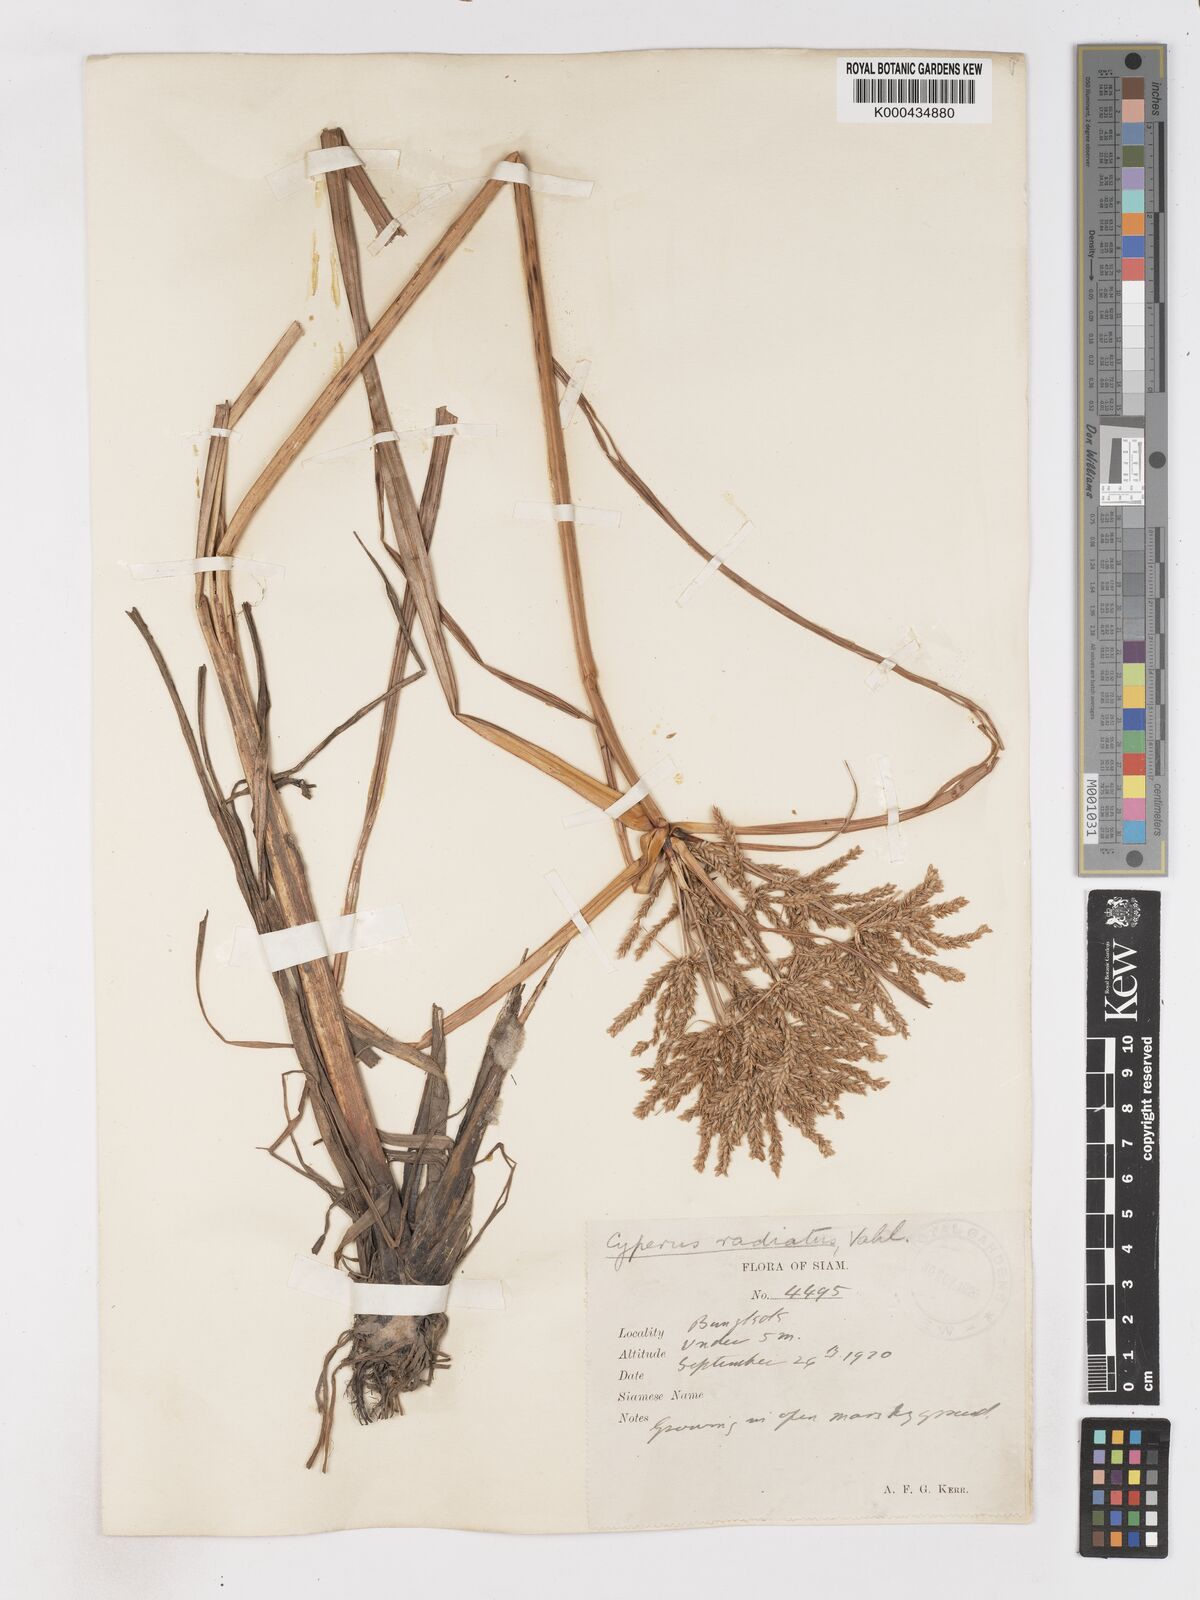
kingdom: Plantae
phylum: Tracheophyta
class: Liliopsida
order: Poales
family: Cyperaceae
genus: Cyperus
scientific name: Cyperus imbricatus
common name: Shingle flatsedge
